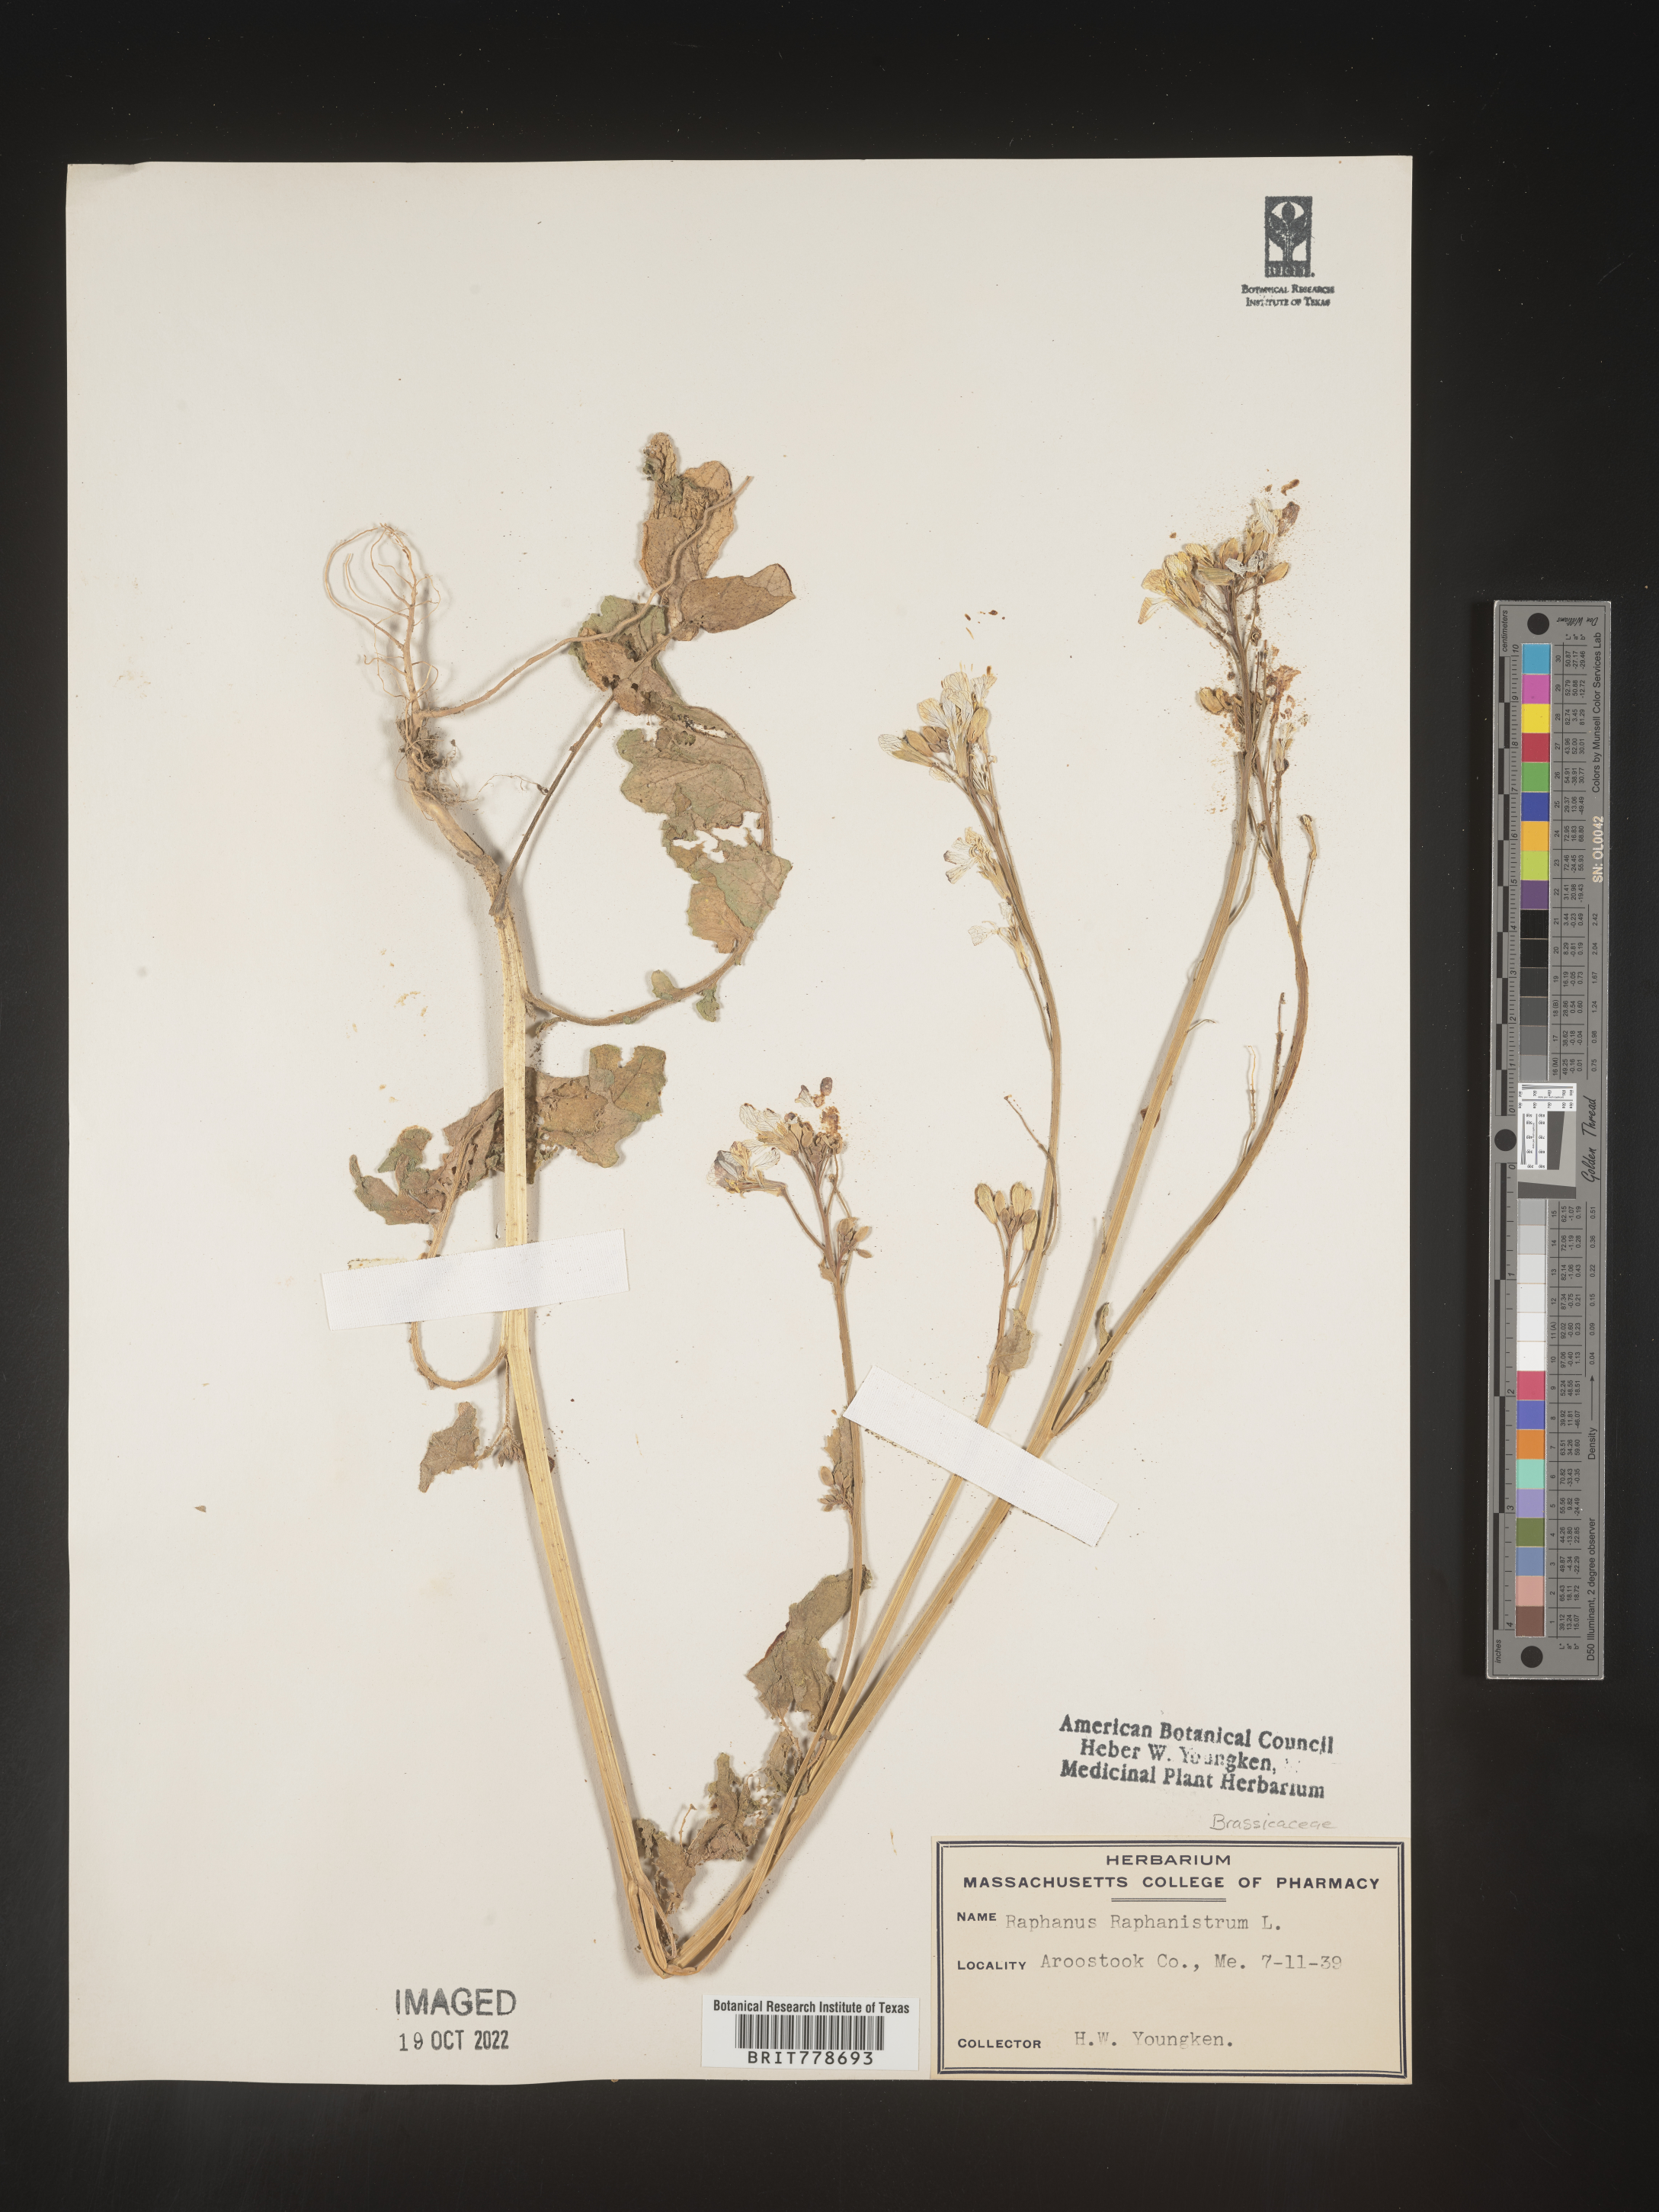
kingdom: Plantae
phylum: Tracheophyta
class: Magnoliopsida
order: Brassicales
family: Brassicaceae
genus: Raphanus
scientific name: Raphanus raphanistrum
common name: Wild radish
